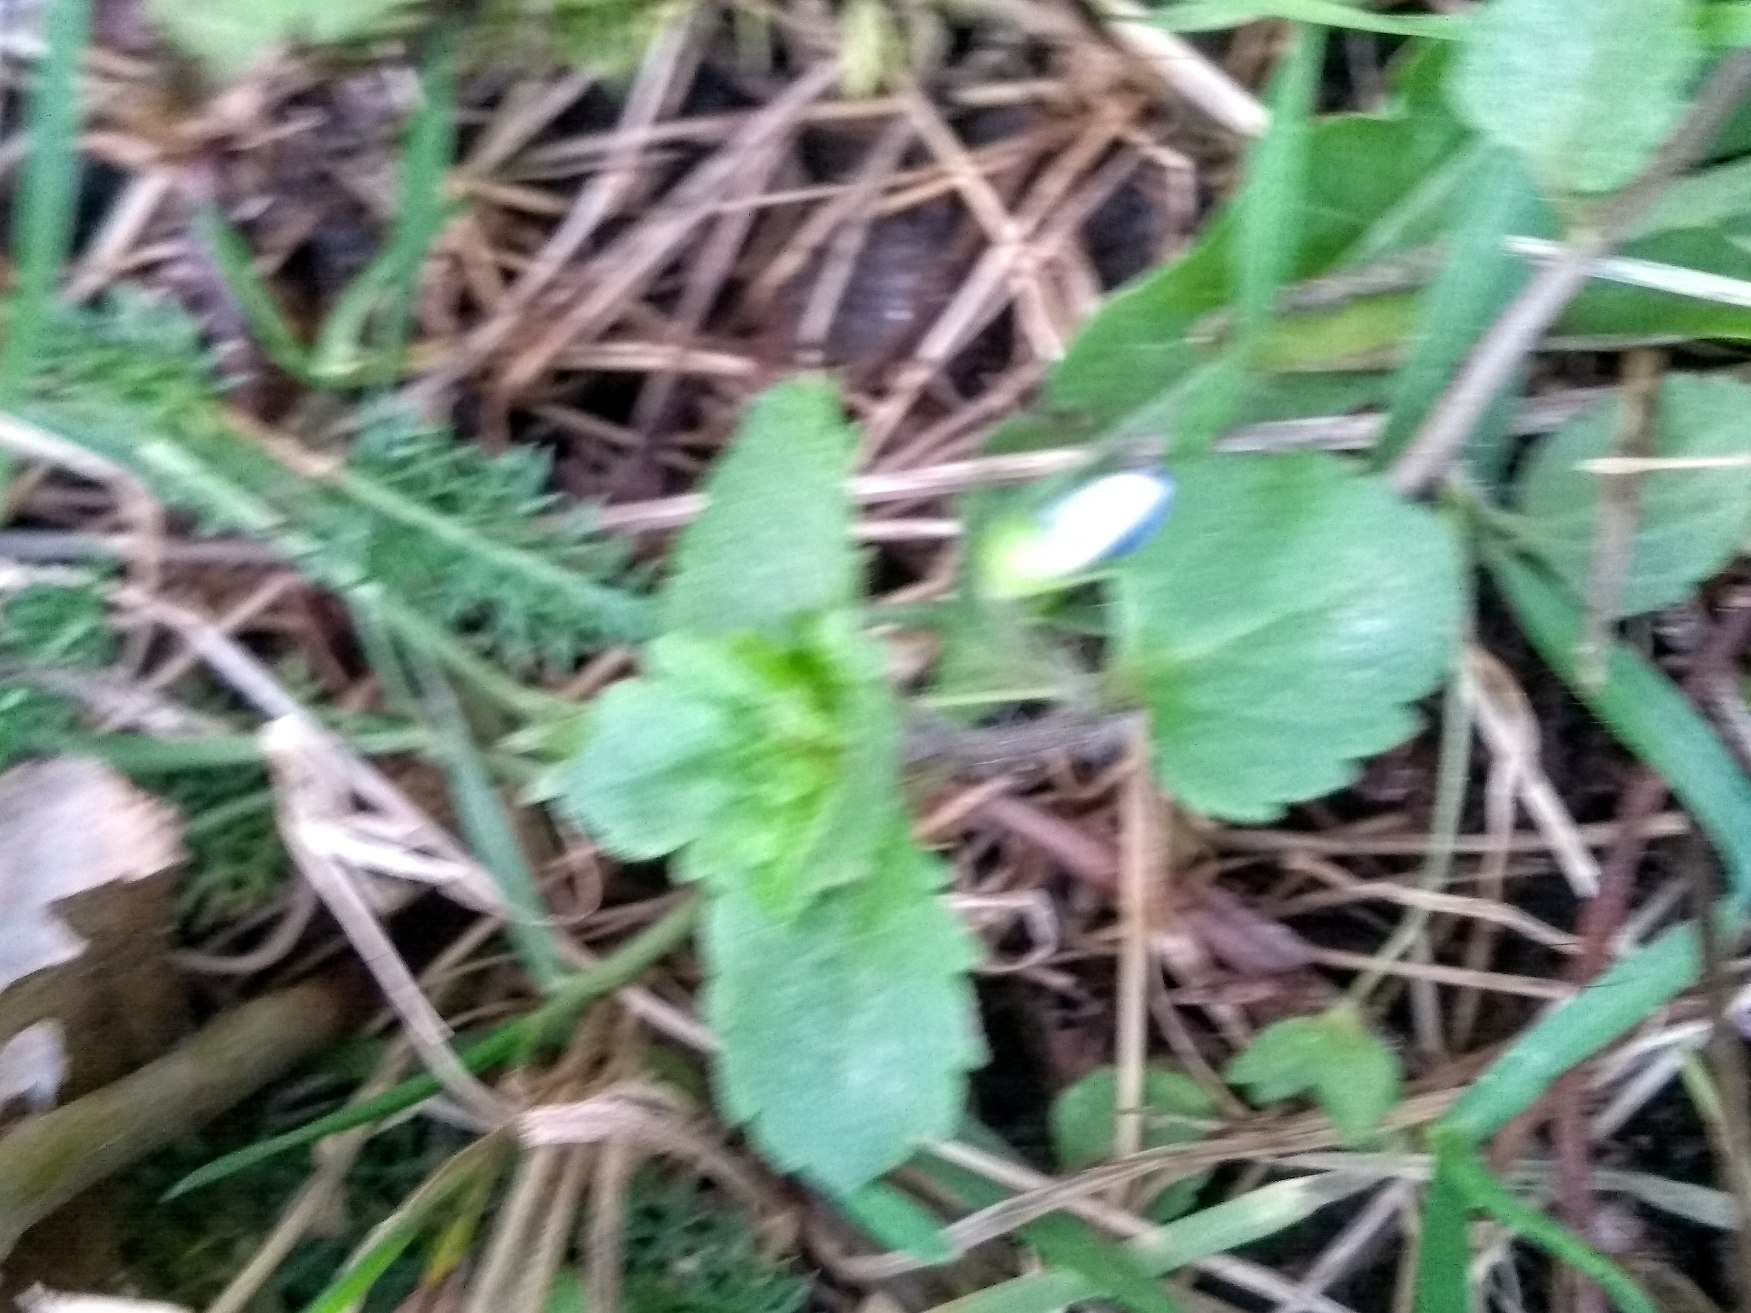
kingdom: Plantae
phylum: Tracheophyta
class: Magnoliopsida
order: Lamiales
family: Plantaginaceae
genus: Veronica
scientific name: Veronica persica
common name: Storkronet ærenpris
